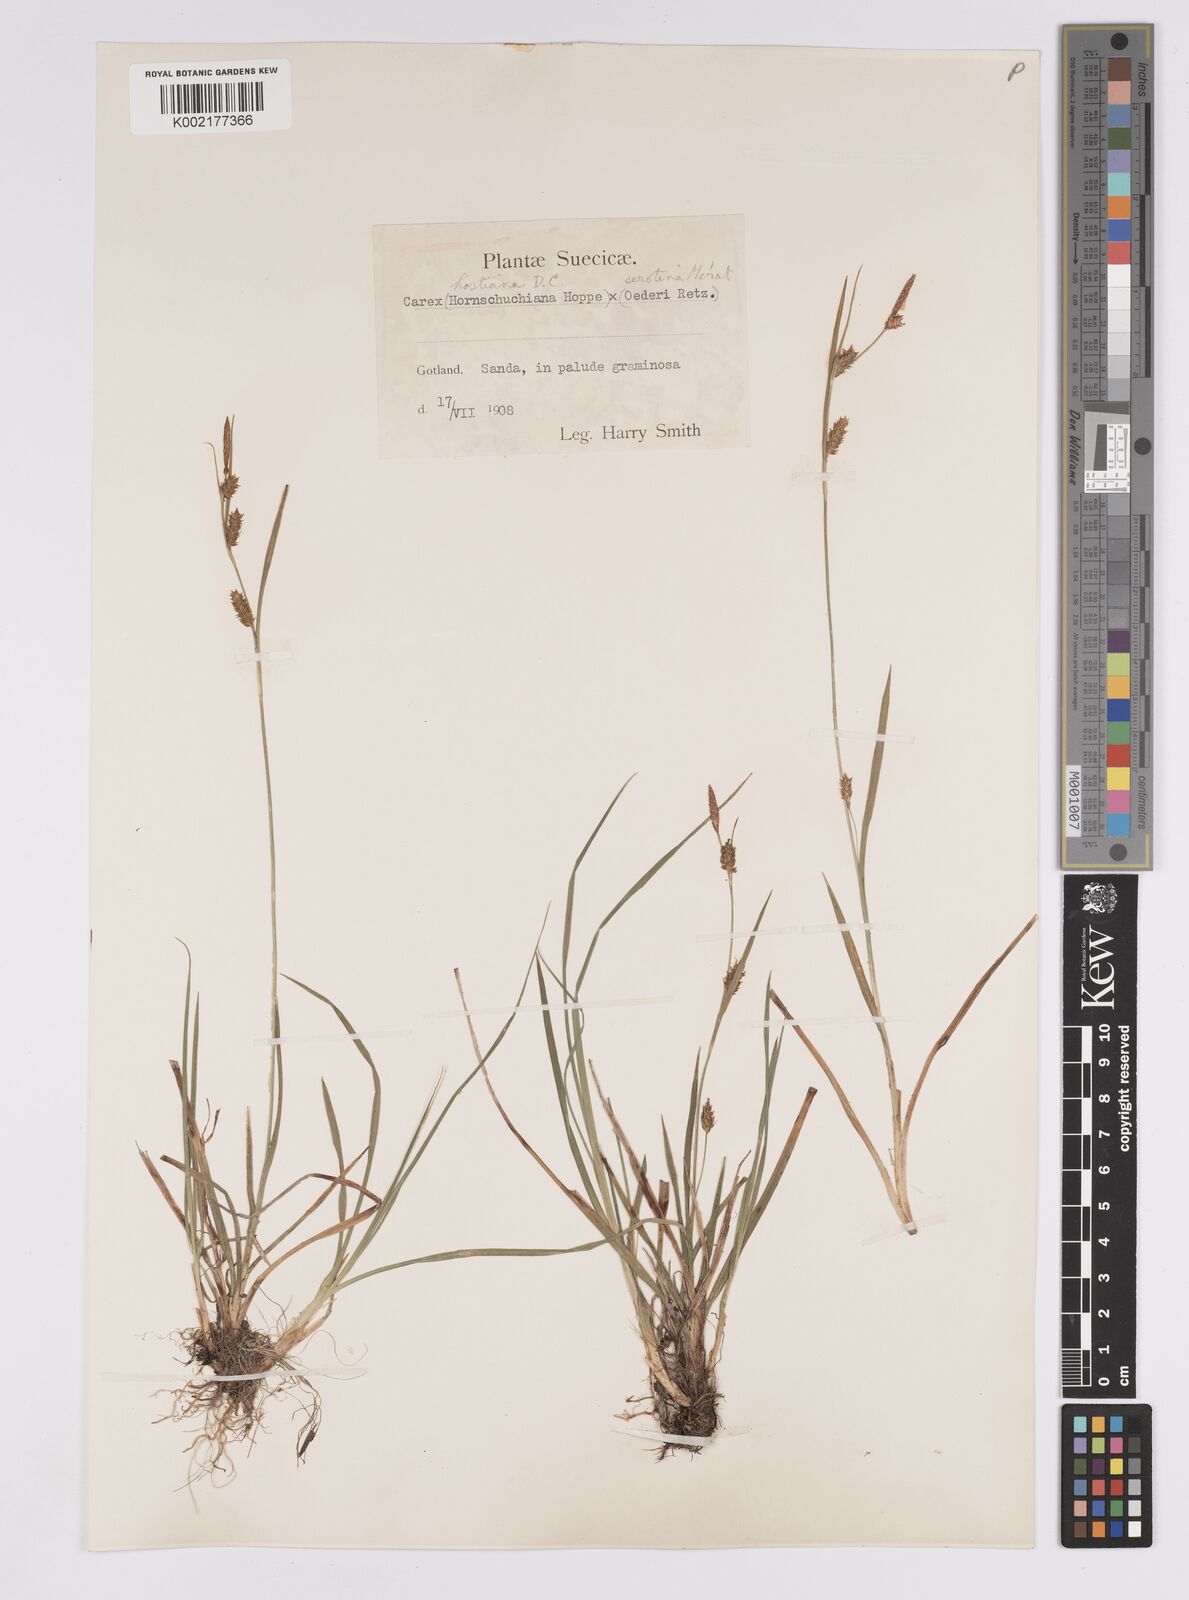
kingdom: Plantae
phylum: Tracheophyta
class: Liliopsida
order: Poales
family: Cyperaceae
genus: Carex
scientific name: Carex hostiana
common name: Tawny sedge
